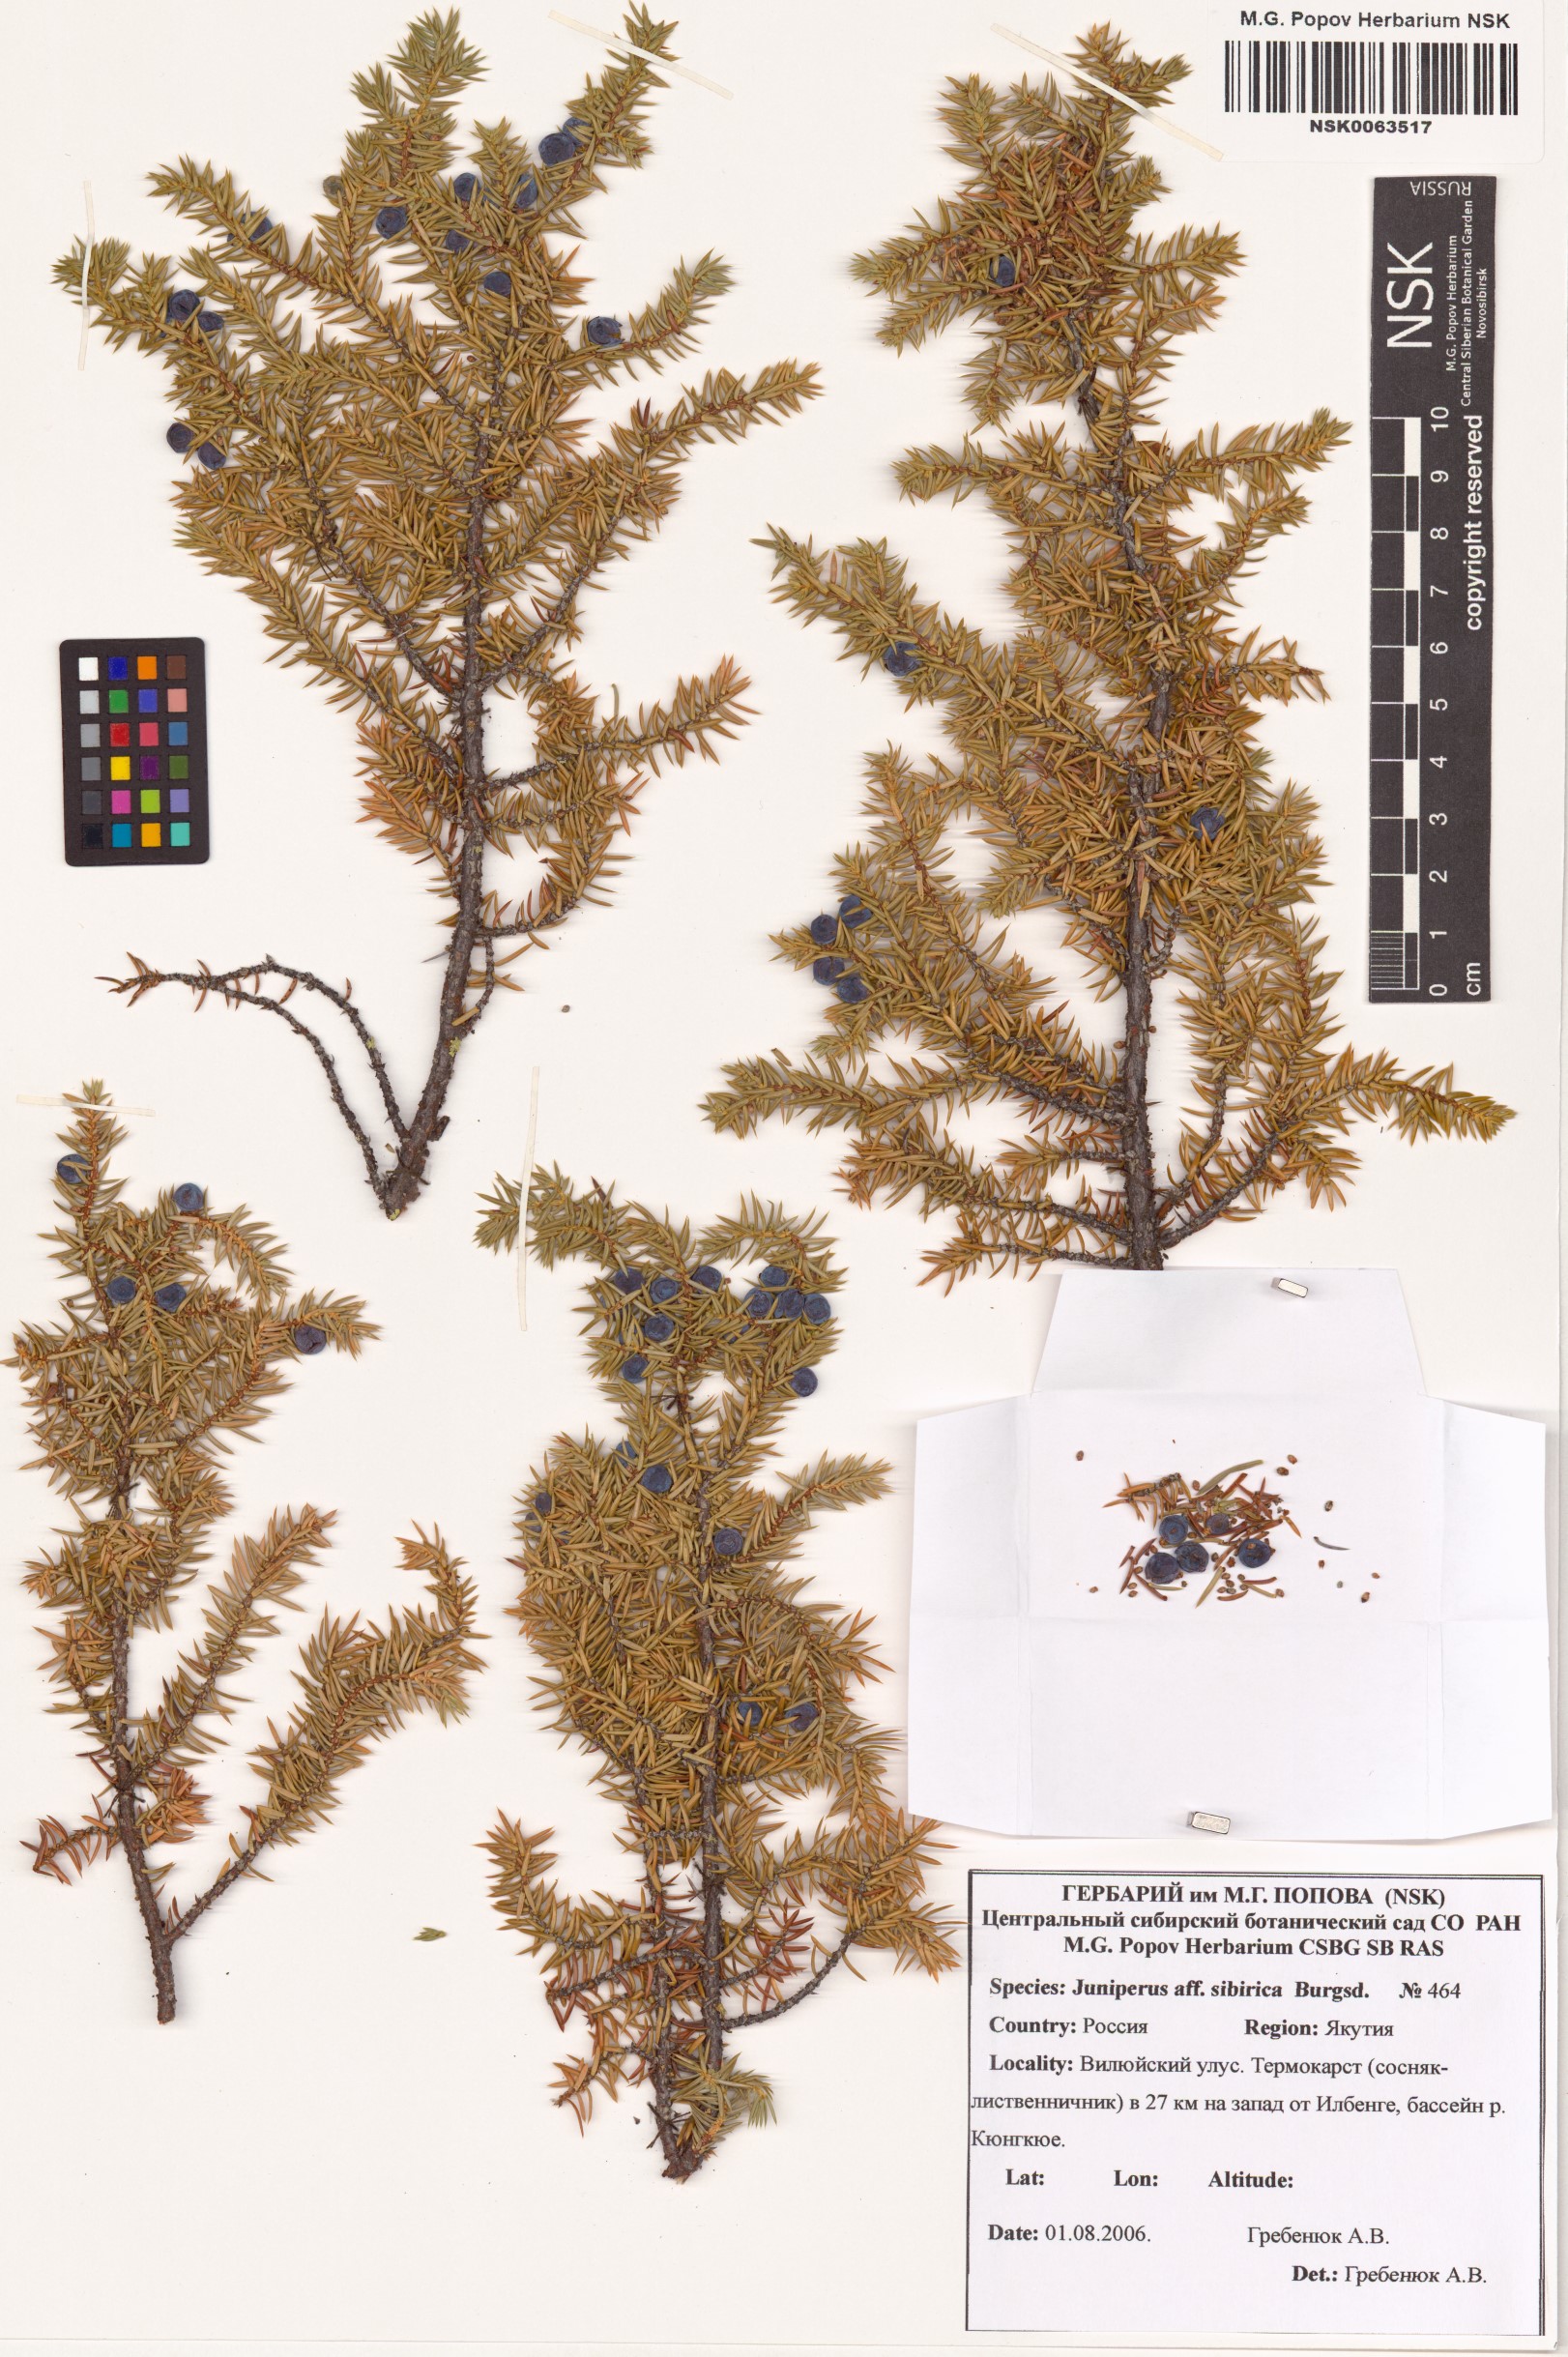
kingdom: Plantae
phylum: Tracheophyta
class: Pinopsida
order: Pinales
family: Cupressaceae
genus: Juniperus
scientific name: Juniperus communis
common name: Common juniper
